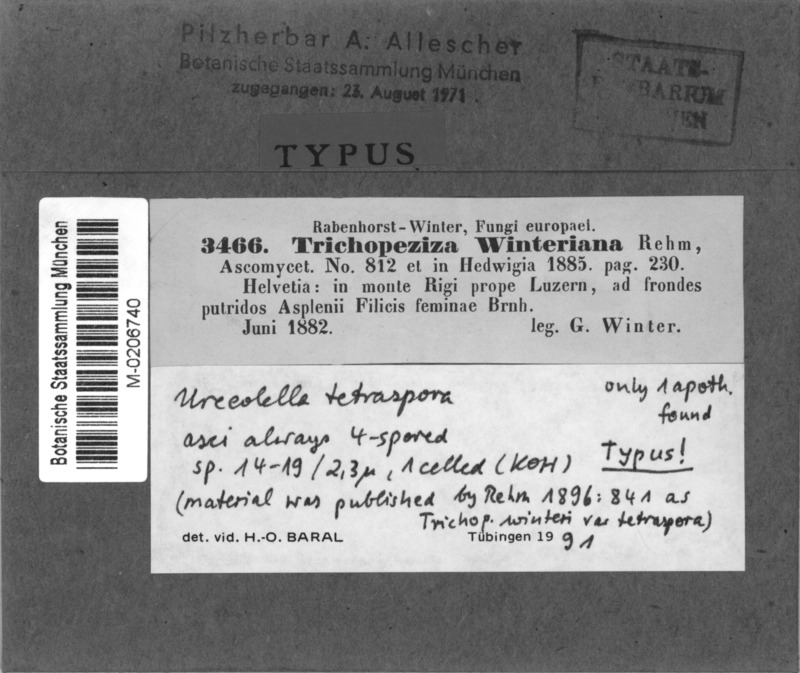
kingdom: Fungi
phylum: Ascomycota
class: Leotiomycetes
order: Helotiales
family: Hyaloscyphaceae
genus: Urceolella
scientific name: Urceolella tetraspora
